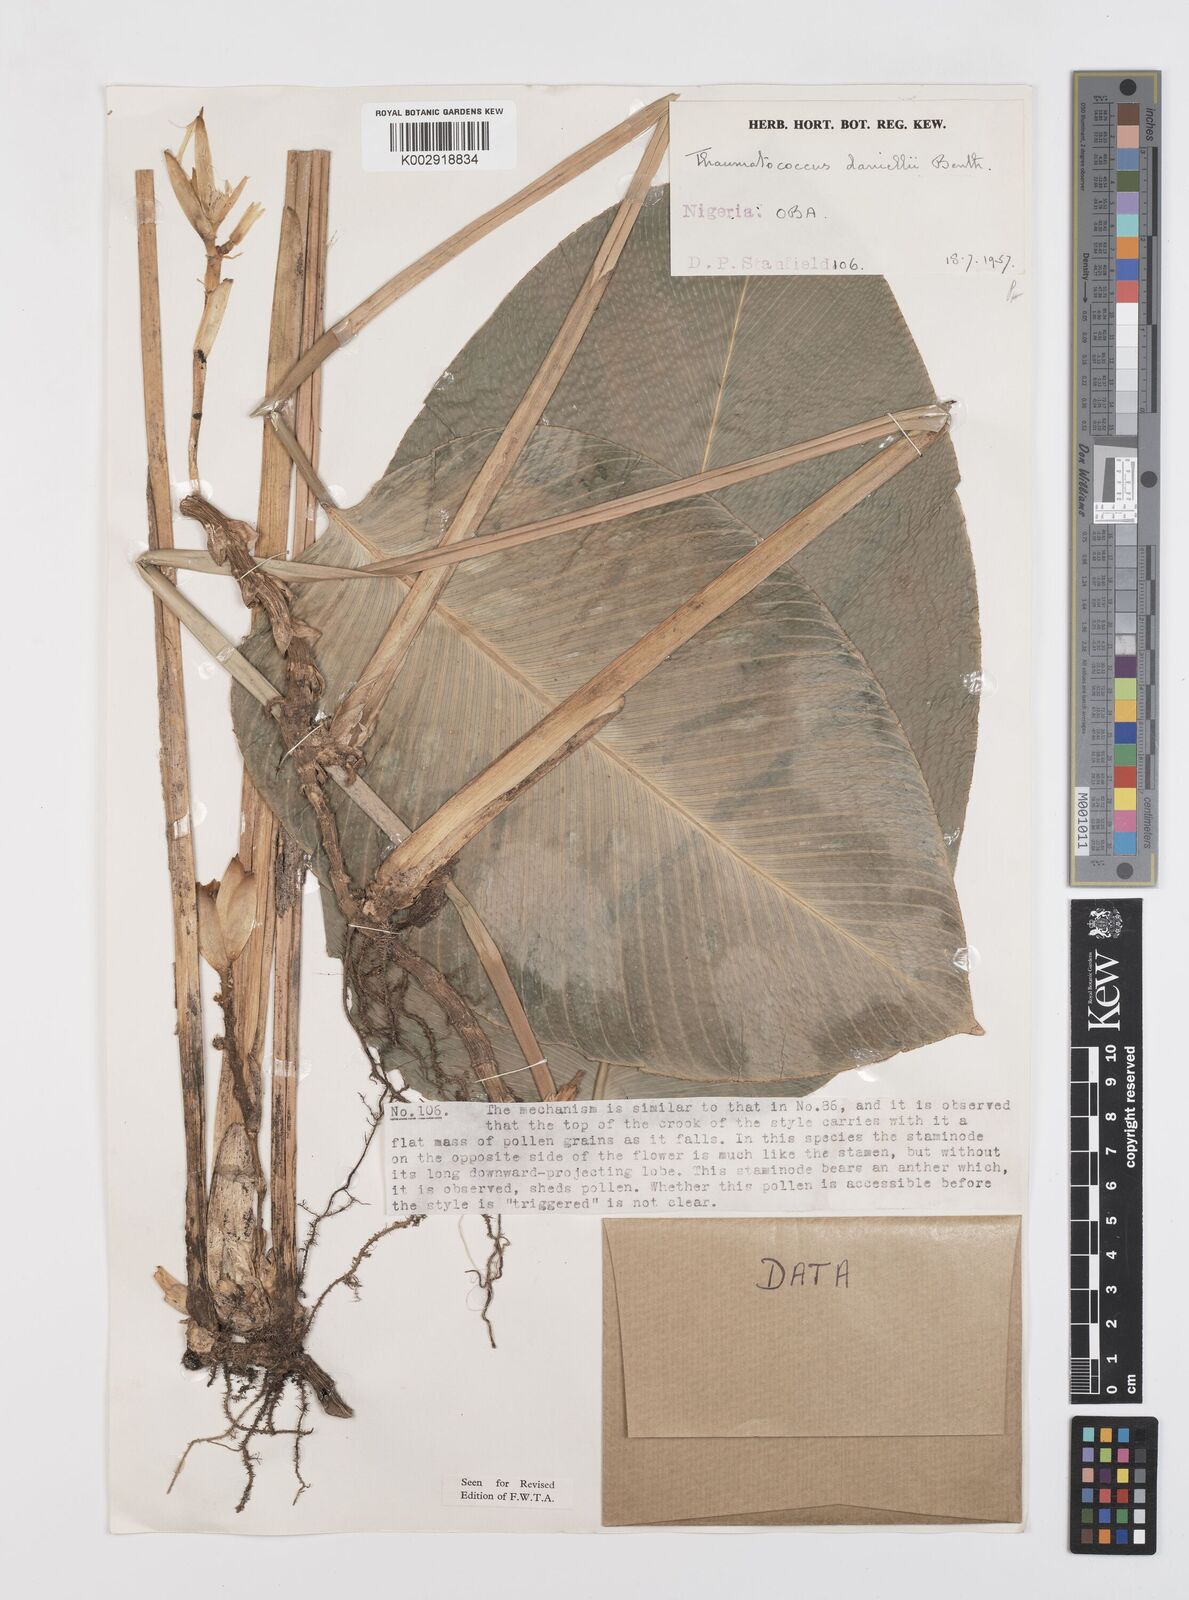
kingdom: Plantae
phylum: Tracheophyta
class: Liliopsida
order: Zingiberales
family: Marantaceae
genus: Thaumatococcus
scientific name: Thaumatococcus daniellii
